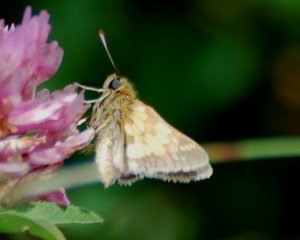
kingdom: Animalia
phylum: Arthropoda
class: Insecta
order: Lepidoptera
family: Hesperiidae
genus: Polites
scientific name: Polites coras
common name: Peck's Skipper
